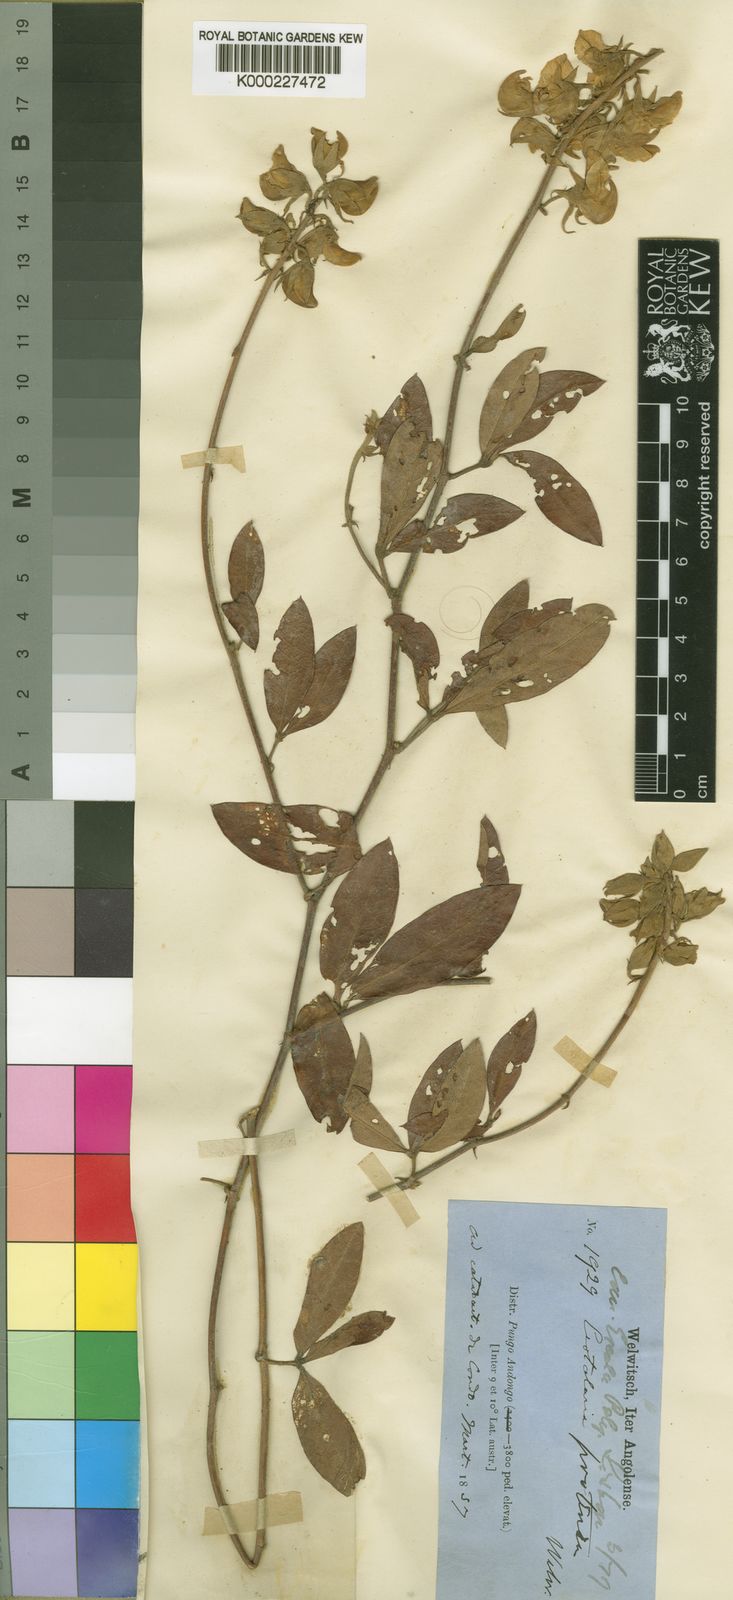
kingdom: Plantae
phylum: Tracheophyta
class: Magnoliopsida
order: Fabales
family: Fabaceae
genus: Crotalaria
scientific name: Crotalaria protensa
